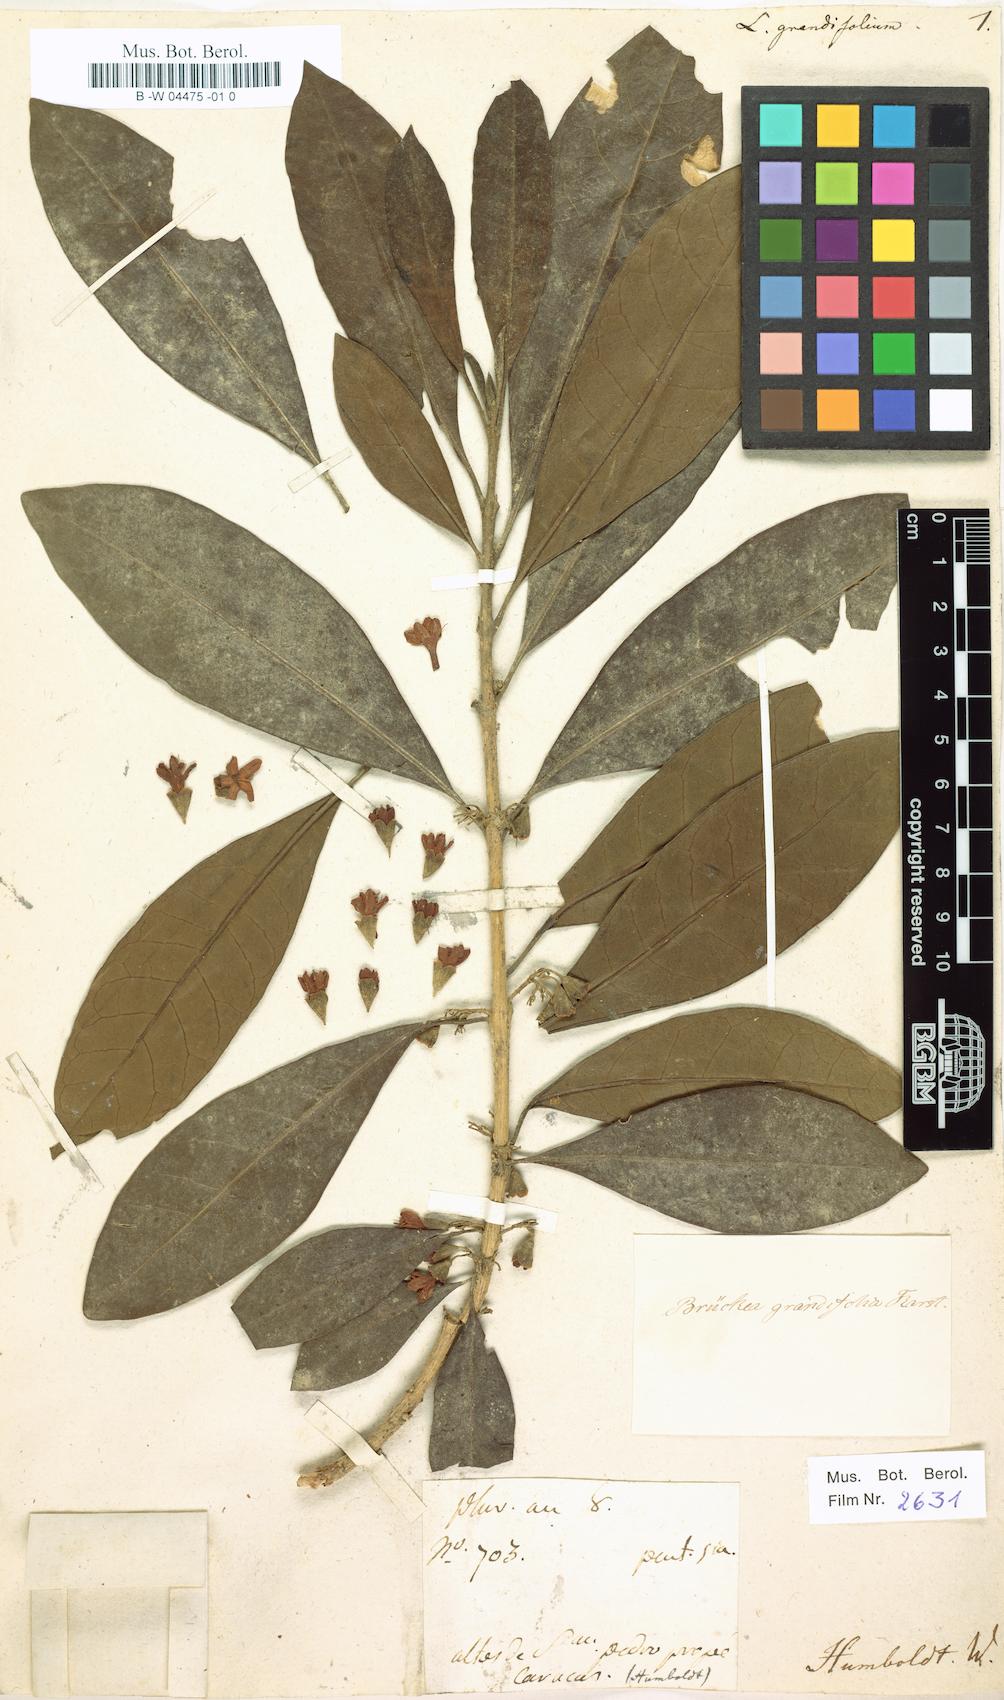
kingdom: Plantae
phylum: Tracheophyta
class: Magnoliopsida
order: Solanales
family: Solanaceae
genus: Iochroma
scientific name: Iochroma arborescens
